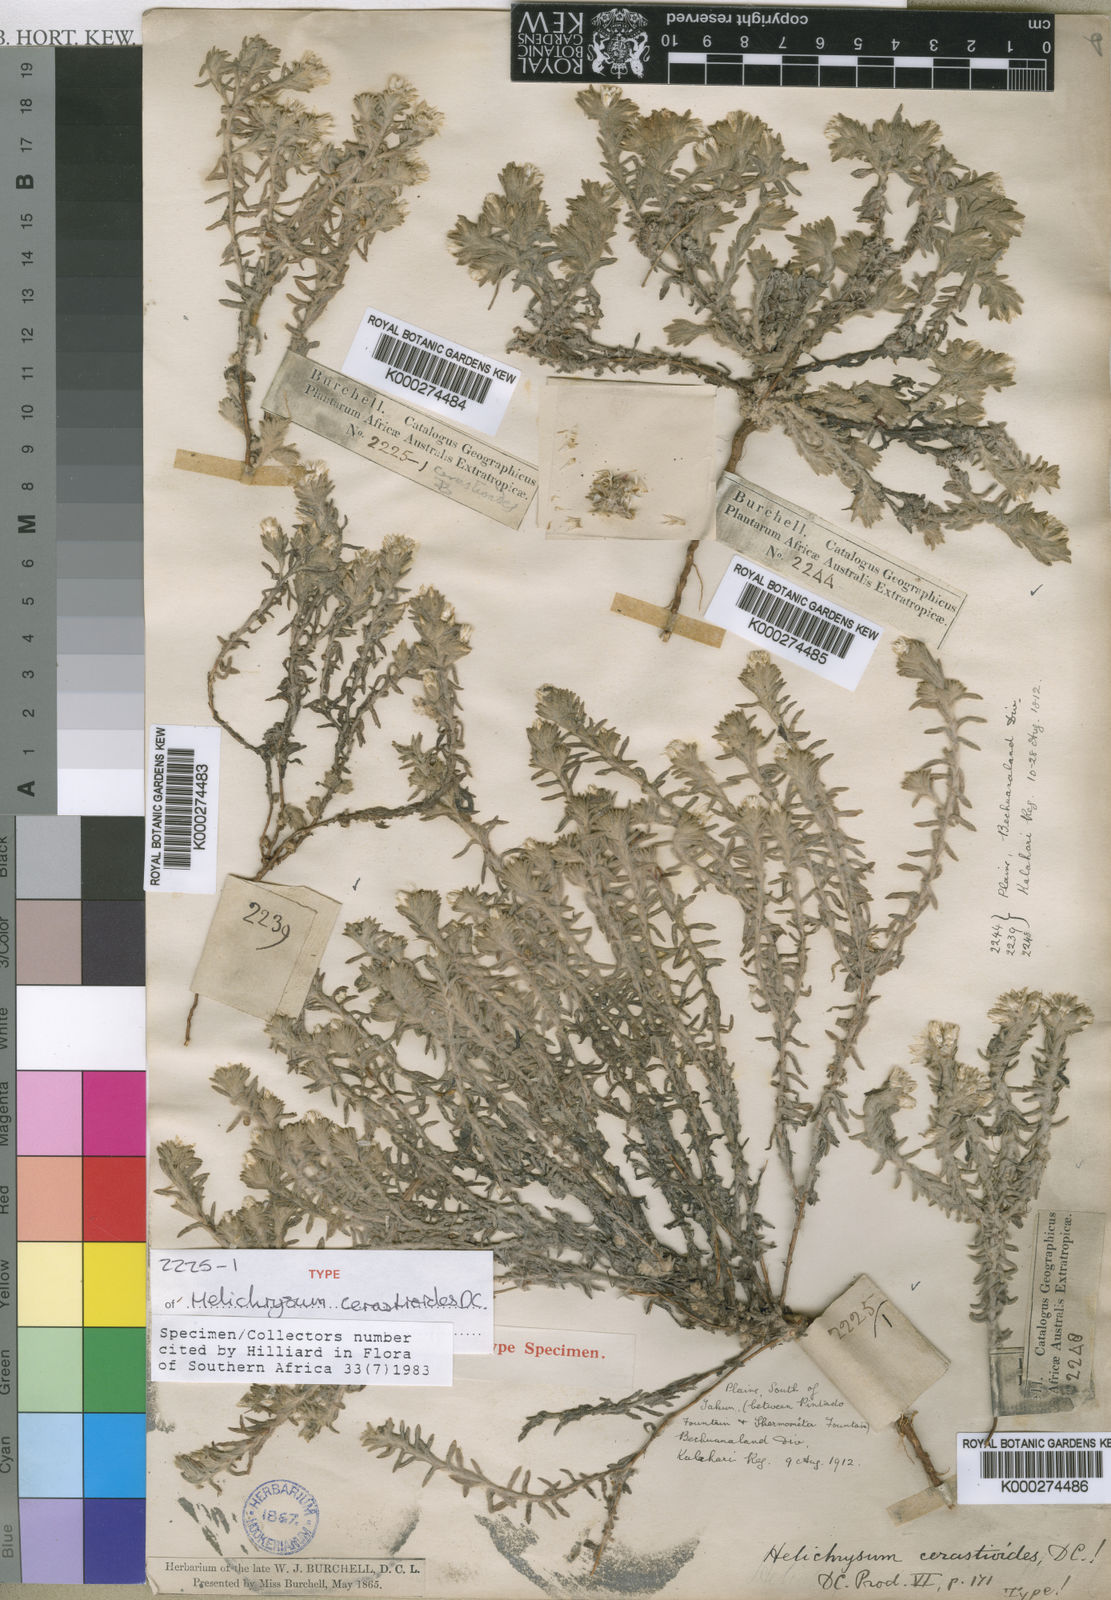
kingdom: Plantae
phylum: Tracheophyta
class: Magnoliopsida
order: Asterales
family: Asteraceae
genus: Helichrysum
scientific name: Helichrysum cerastioides
